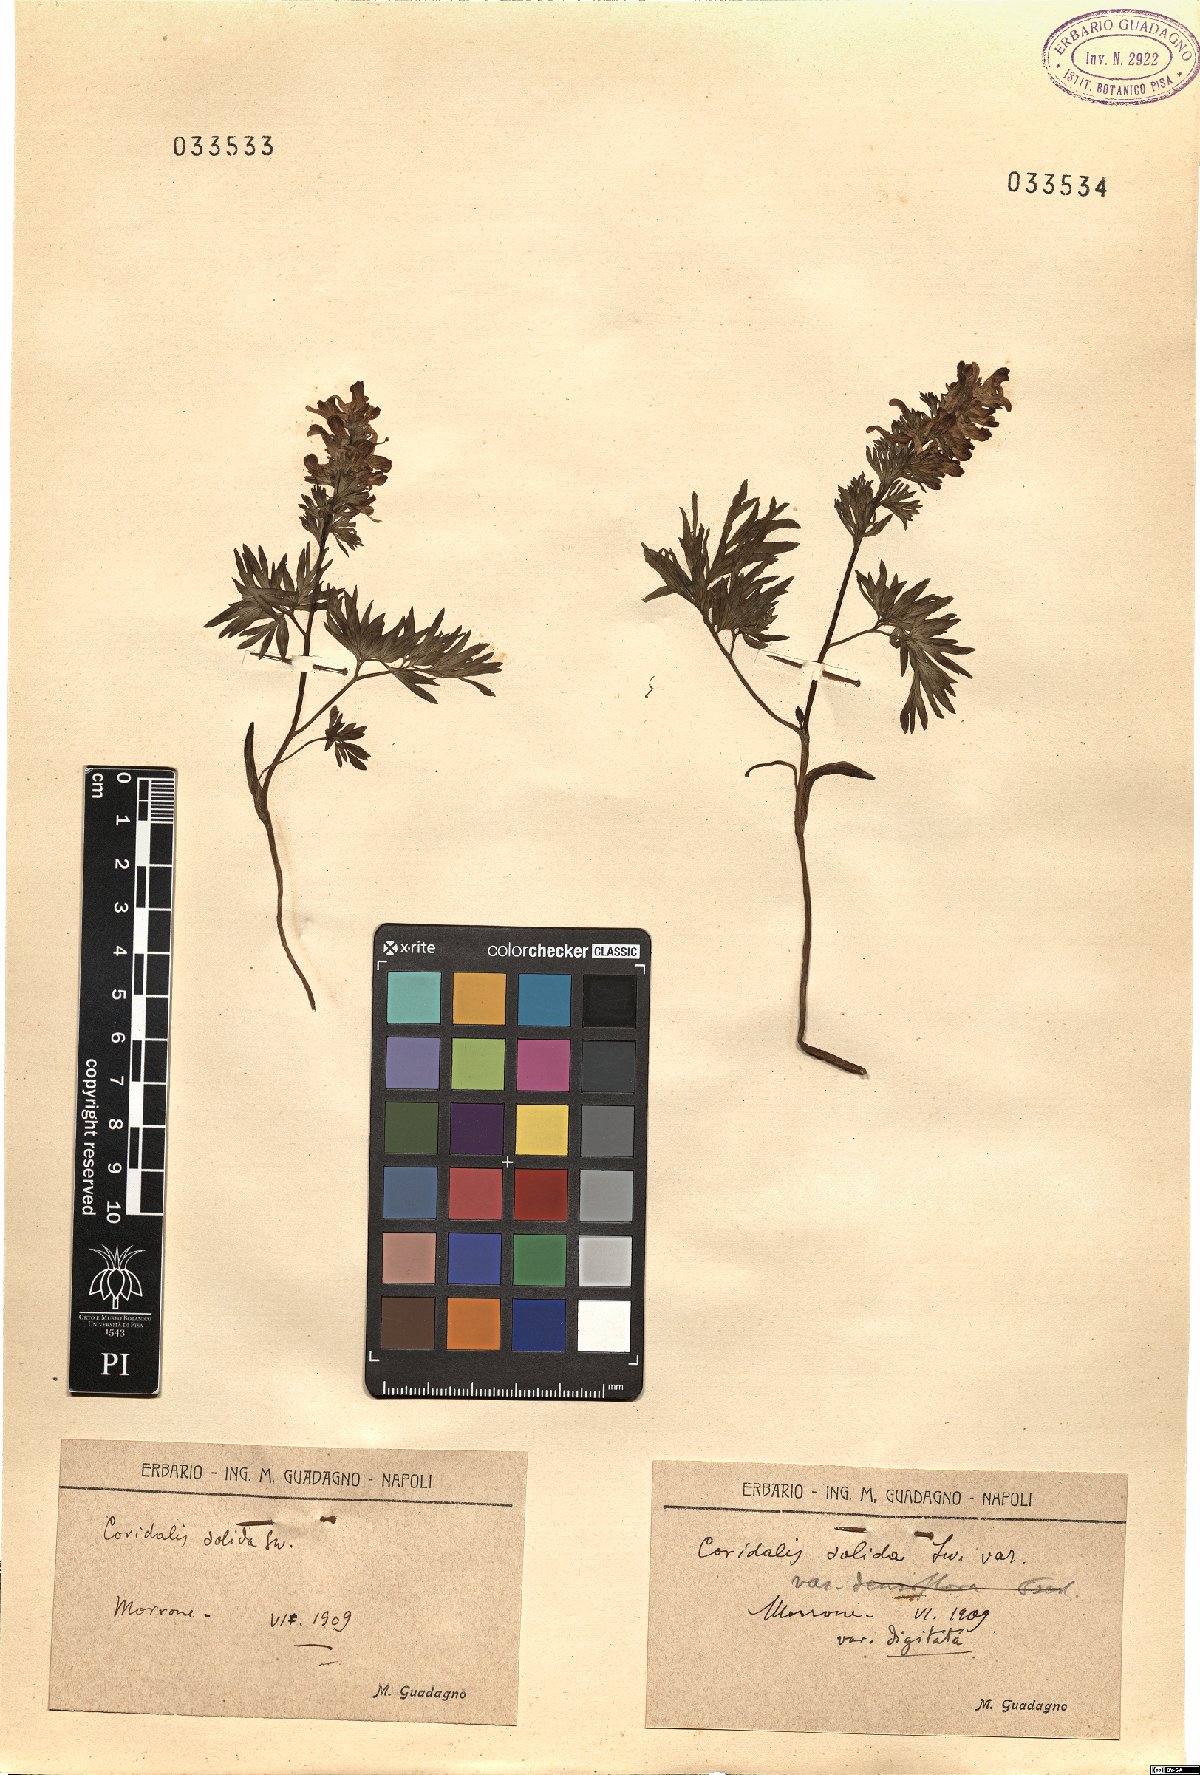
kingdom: Plantae
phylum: Tracheophyta
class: Magnoliopsida
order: Ranunculales
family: Papaveraceae
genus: Corydalis
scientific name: Corydalis solida
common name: Bird-in-a-bush
